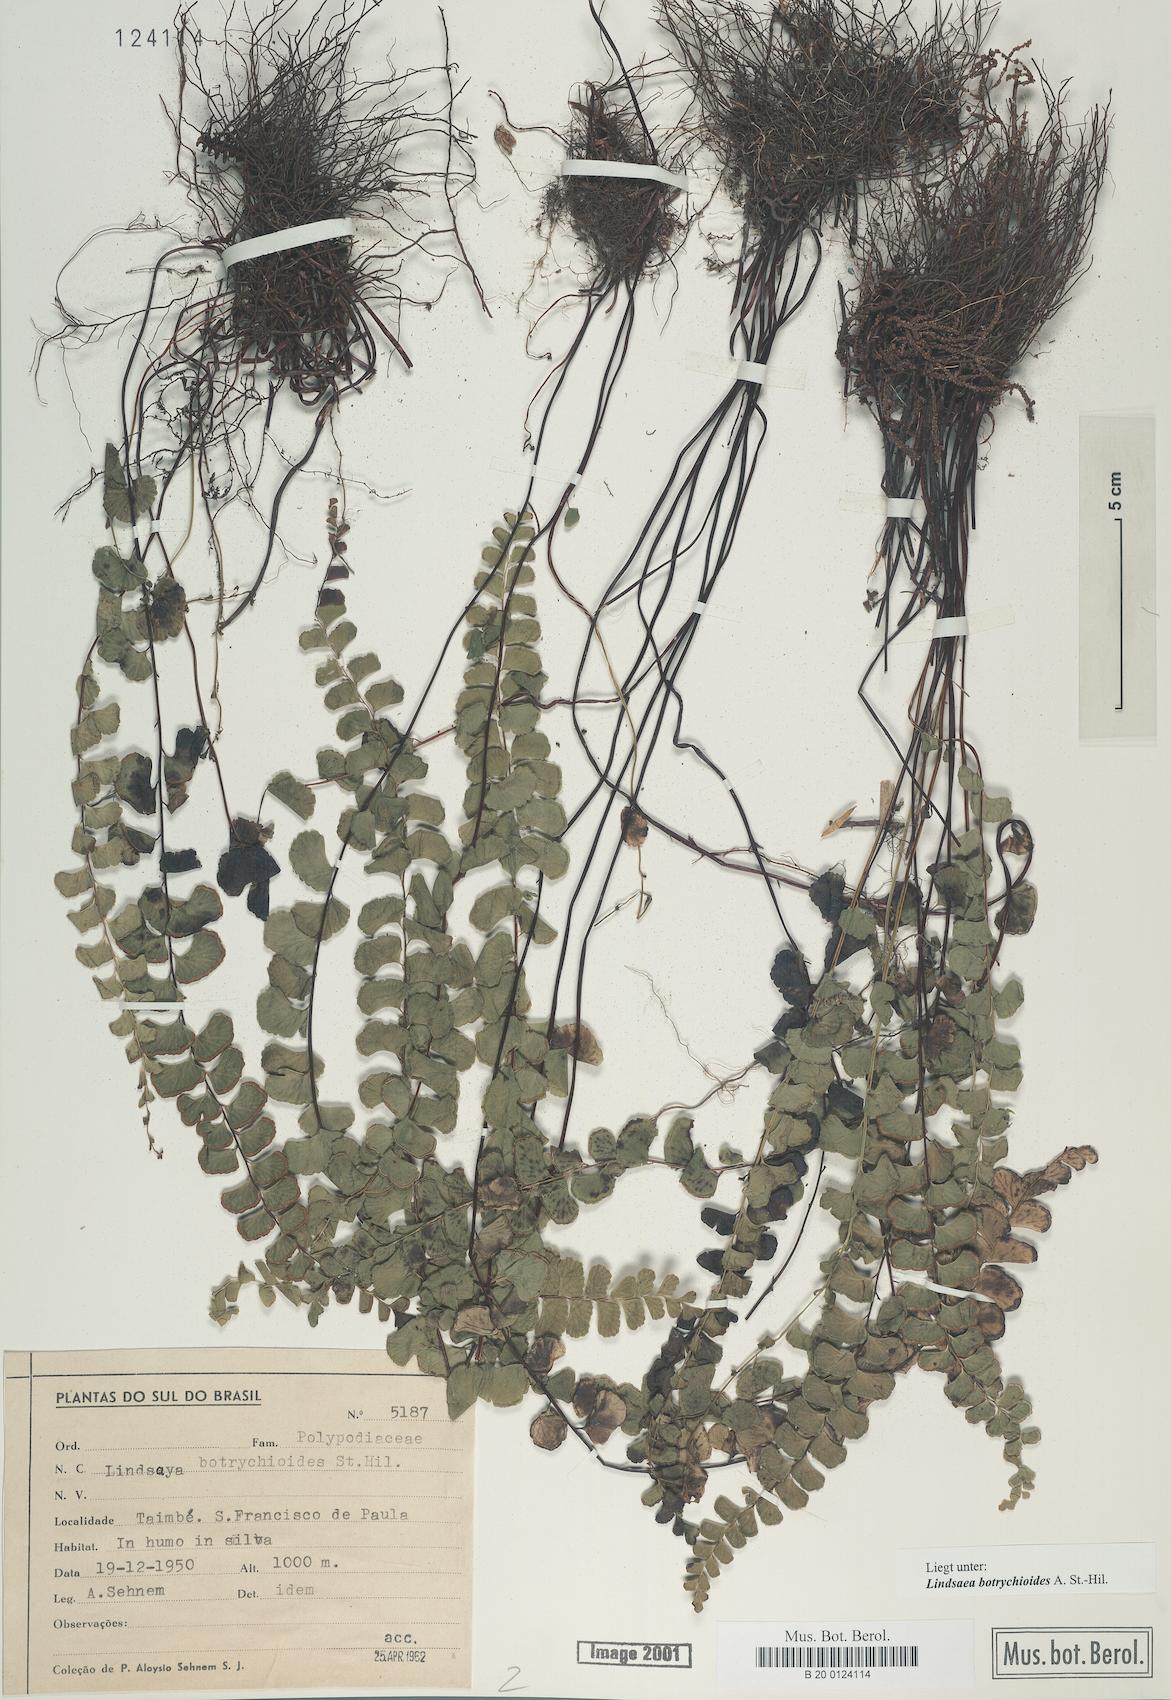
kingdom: Plantae
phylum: Tracheophyta
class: Polypodiopsida
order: Polypodiales
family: Lindsaeaceae
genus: Lindsaea
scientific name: Lindsaea botrychioides
